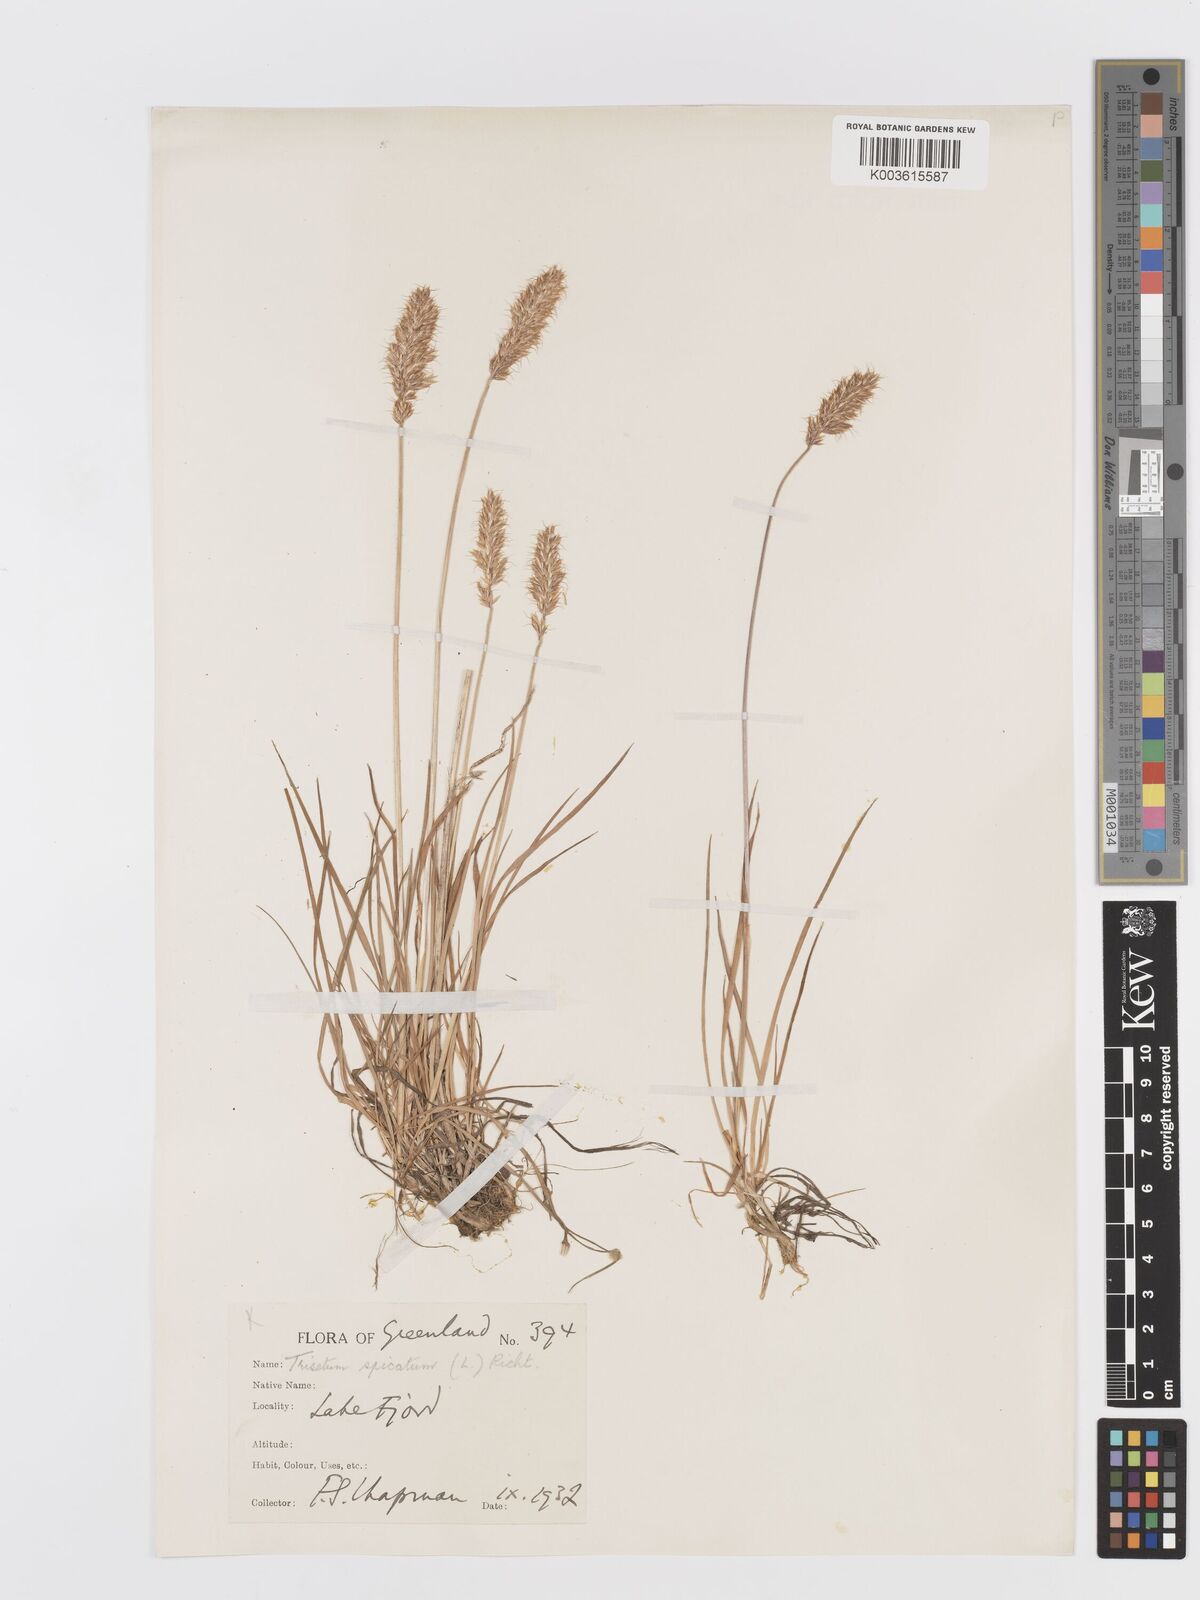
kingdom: Plantae
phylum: Tracheophyta
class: Liliopsida
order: Poales
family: Poaceae
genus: Koeleria
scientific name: Koeleria spicata
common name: Mountain trisetum
